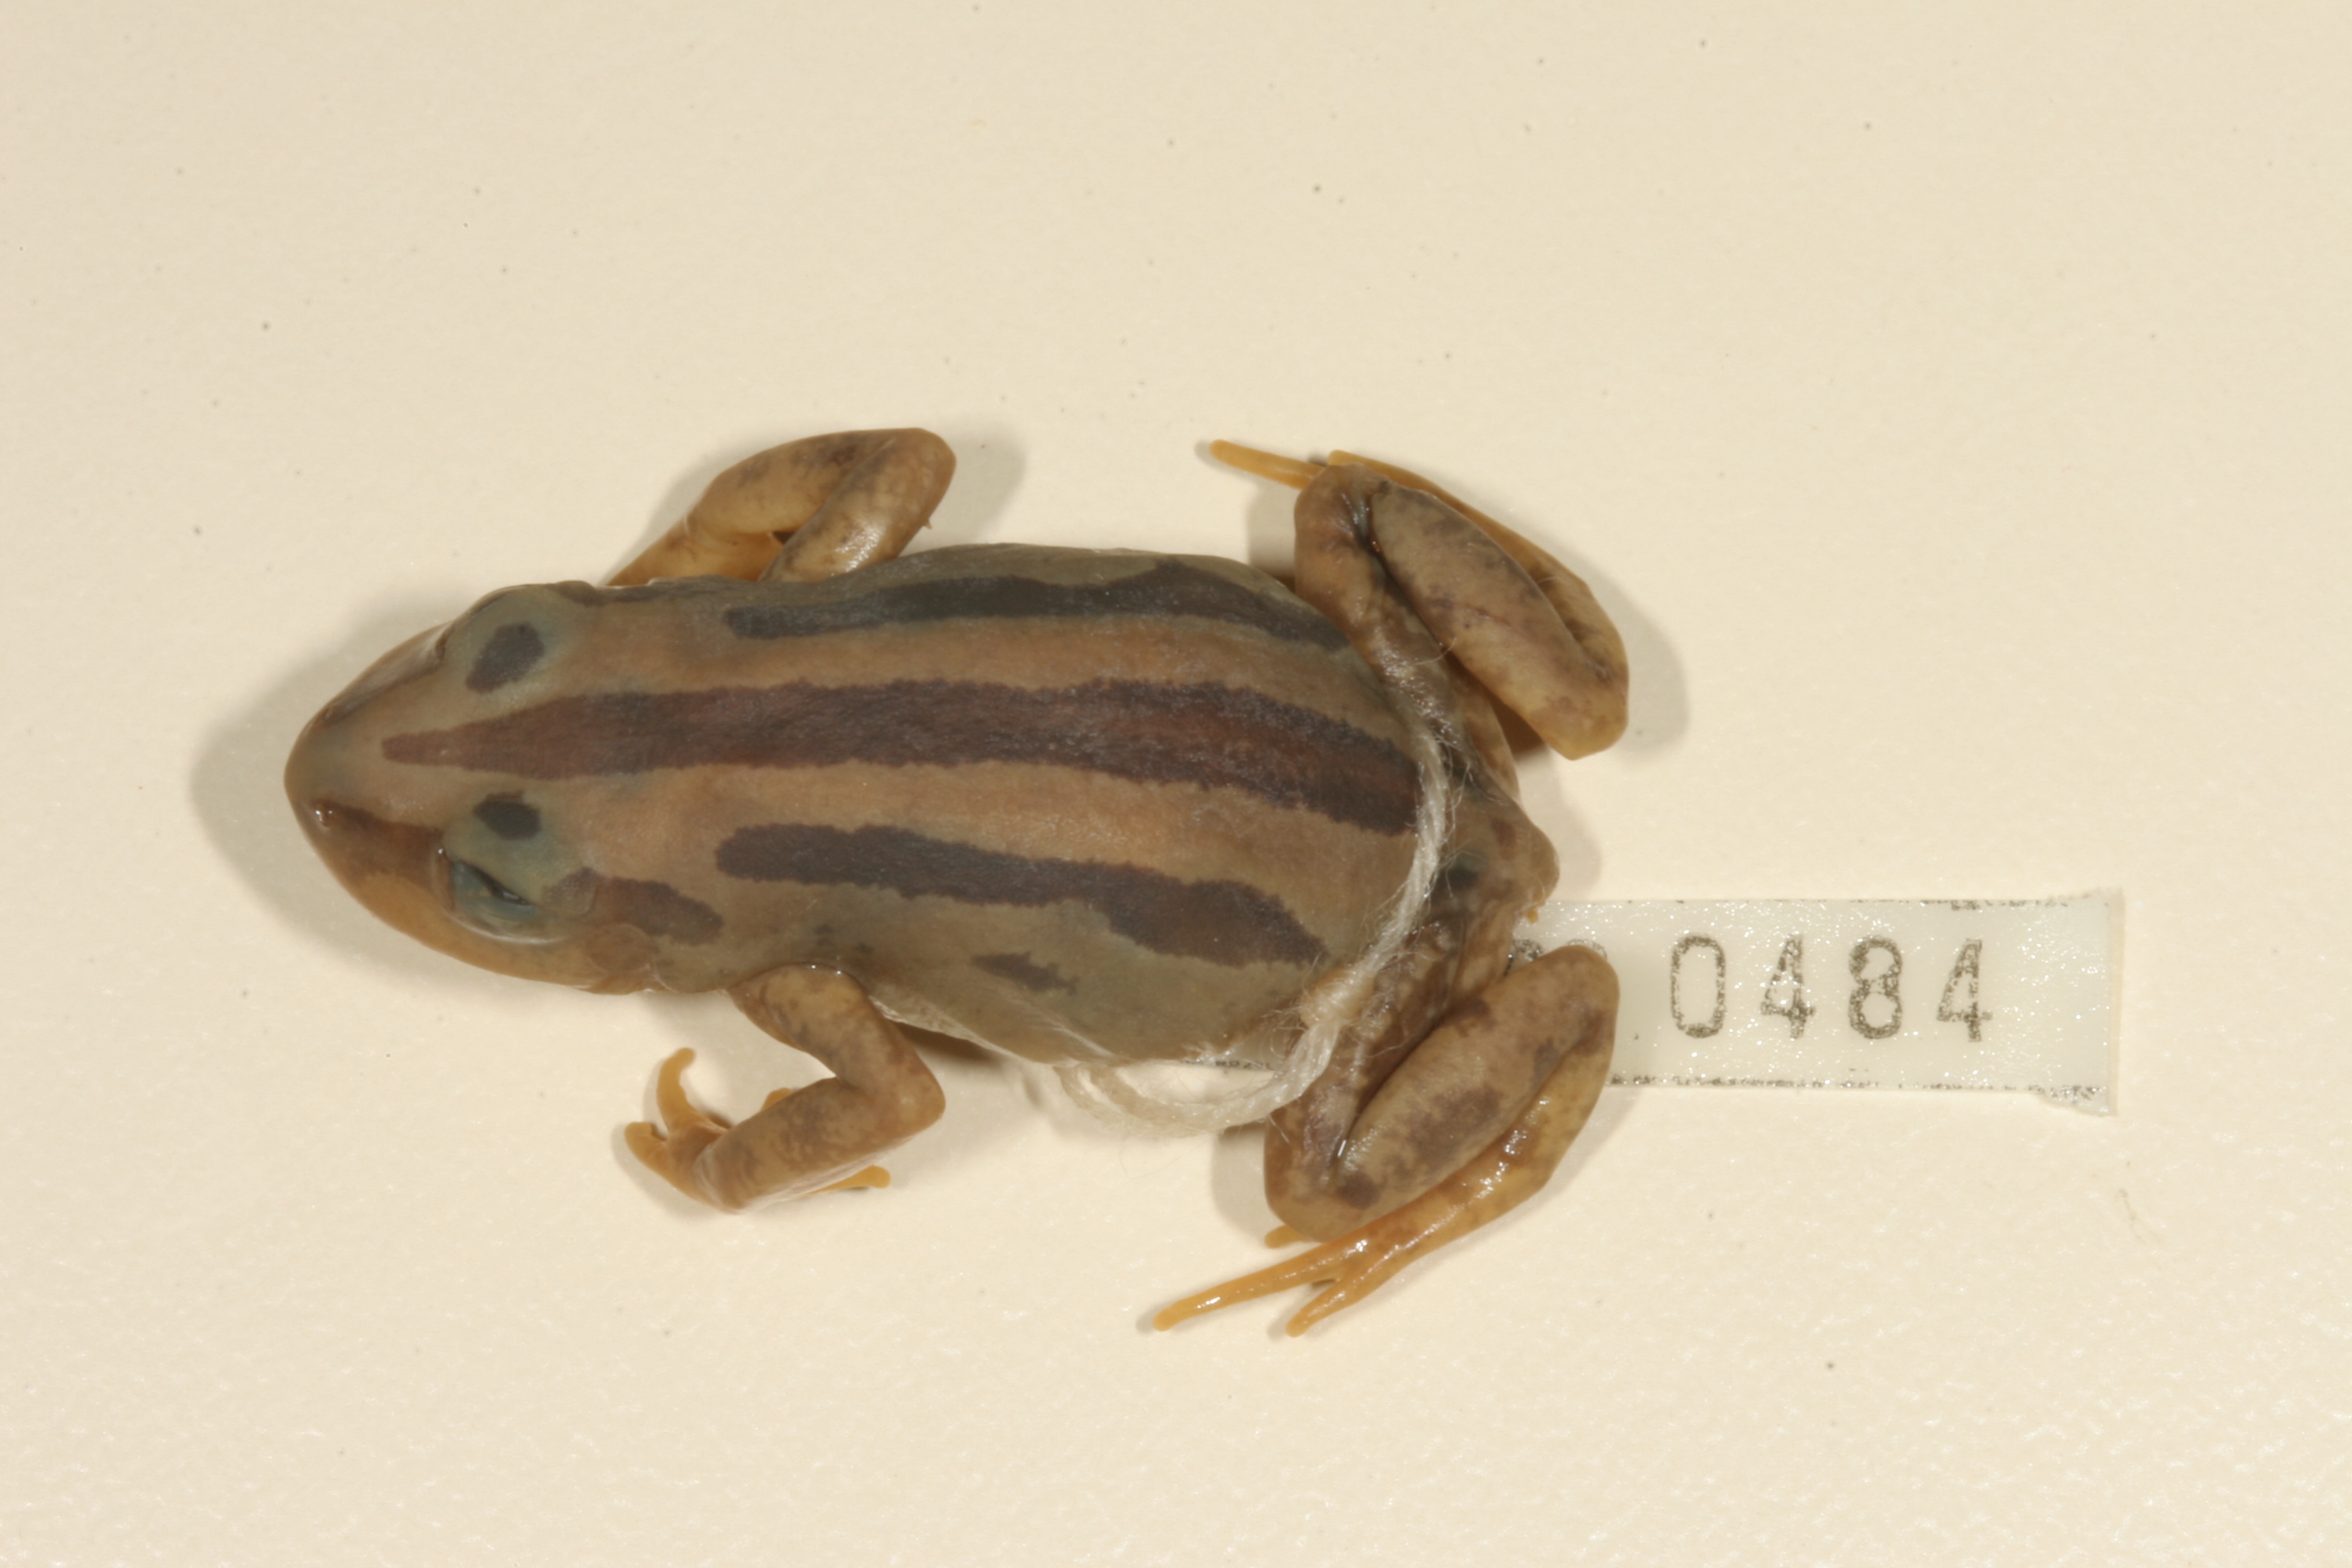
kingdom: Animalia
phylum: Chordata
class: Amphibia
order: Anura
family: Hyperoliidae
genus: Kassina
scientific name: Kassina senegalensis
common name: Senegal land frog
